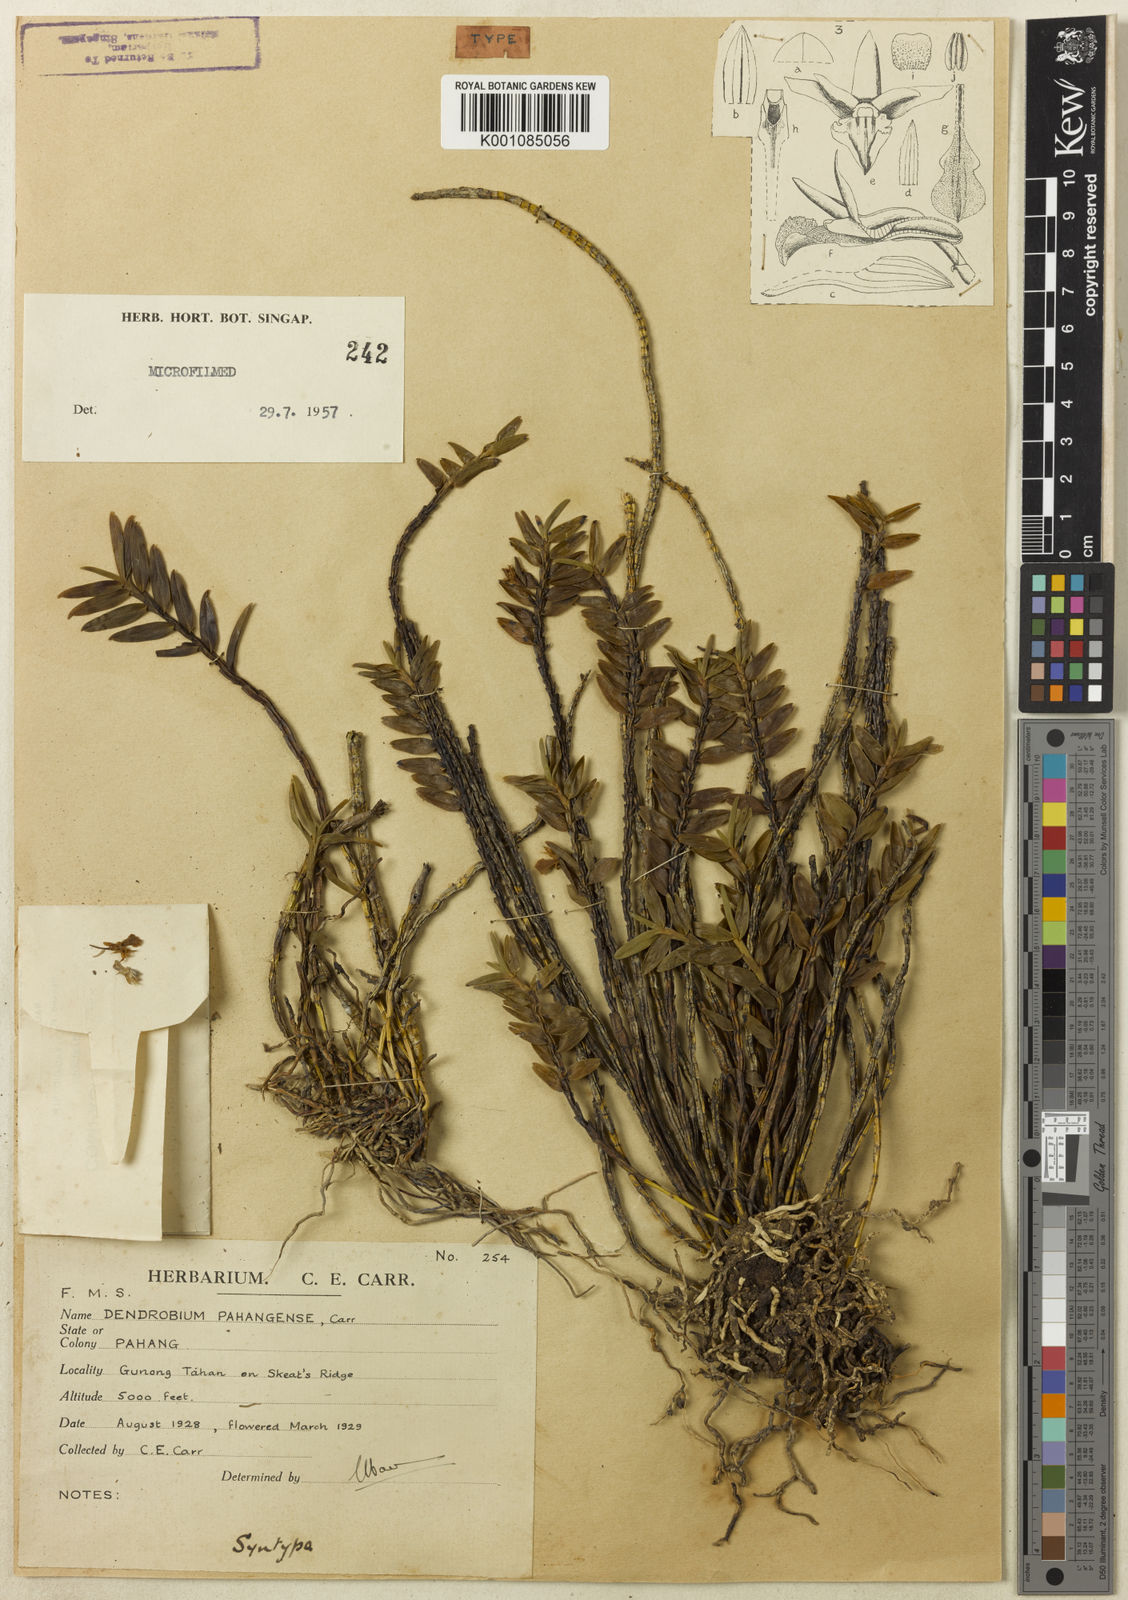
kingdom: Plantae
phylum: Tracheophyta
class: Liliopsida
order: Asparagales
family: Orchidaceae
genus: Dendrobium
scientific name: Dendrobium pahangense
